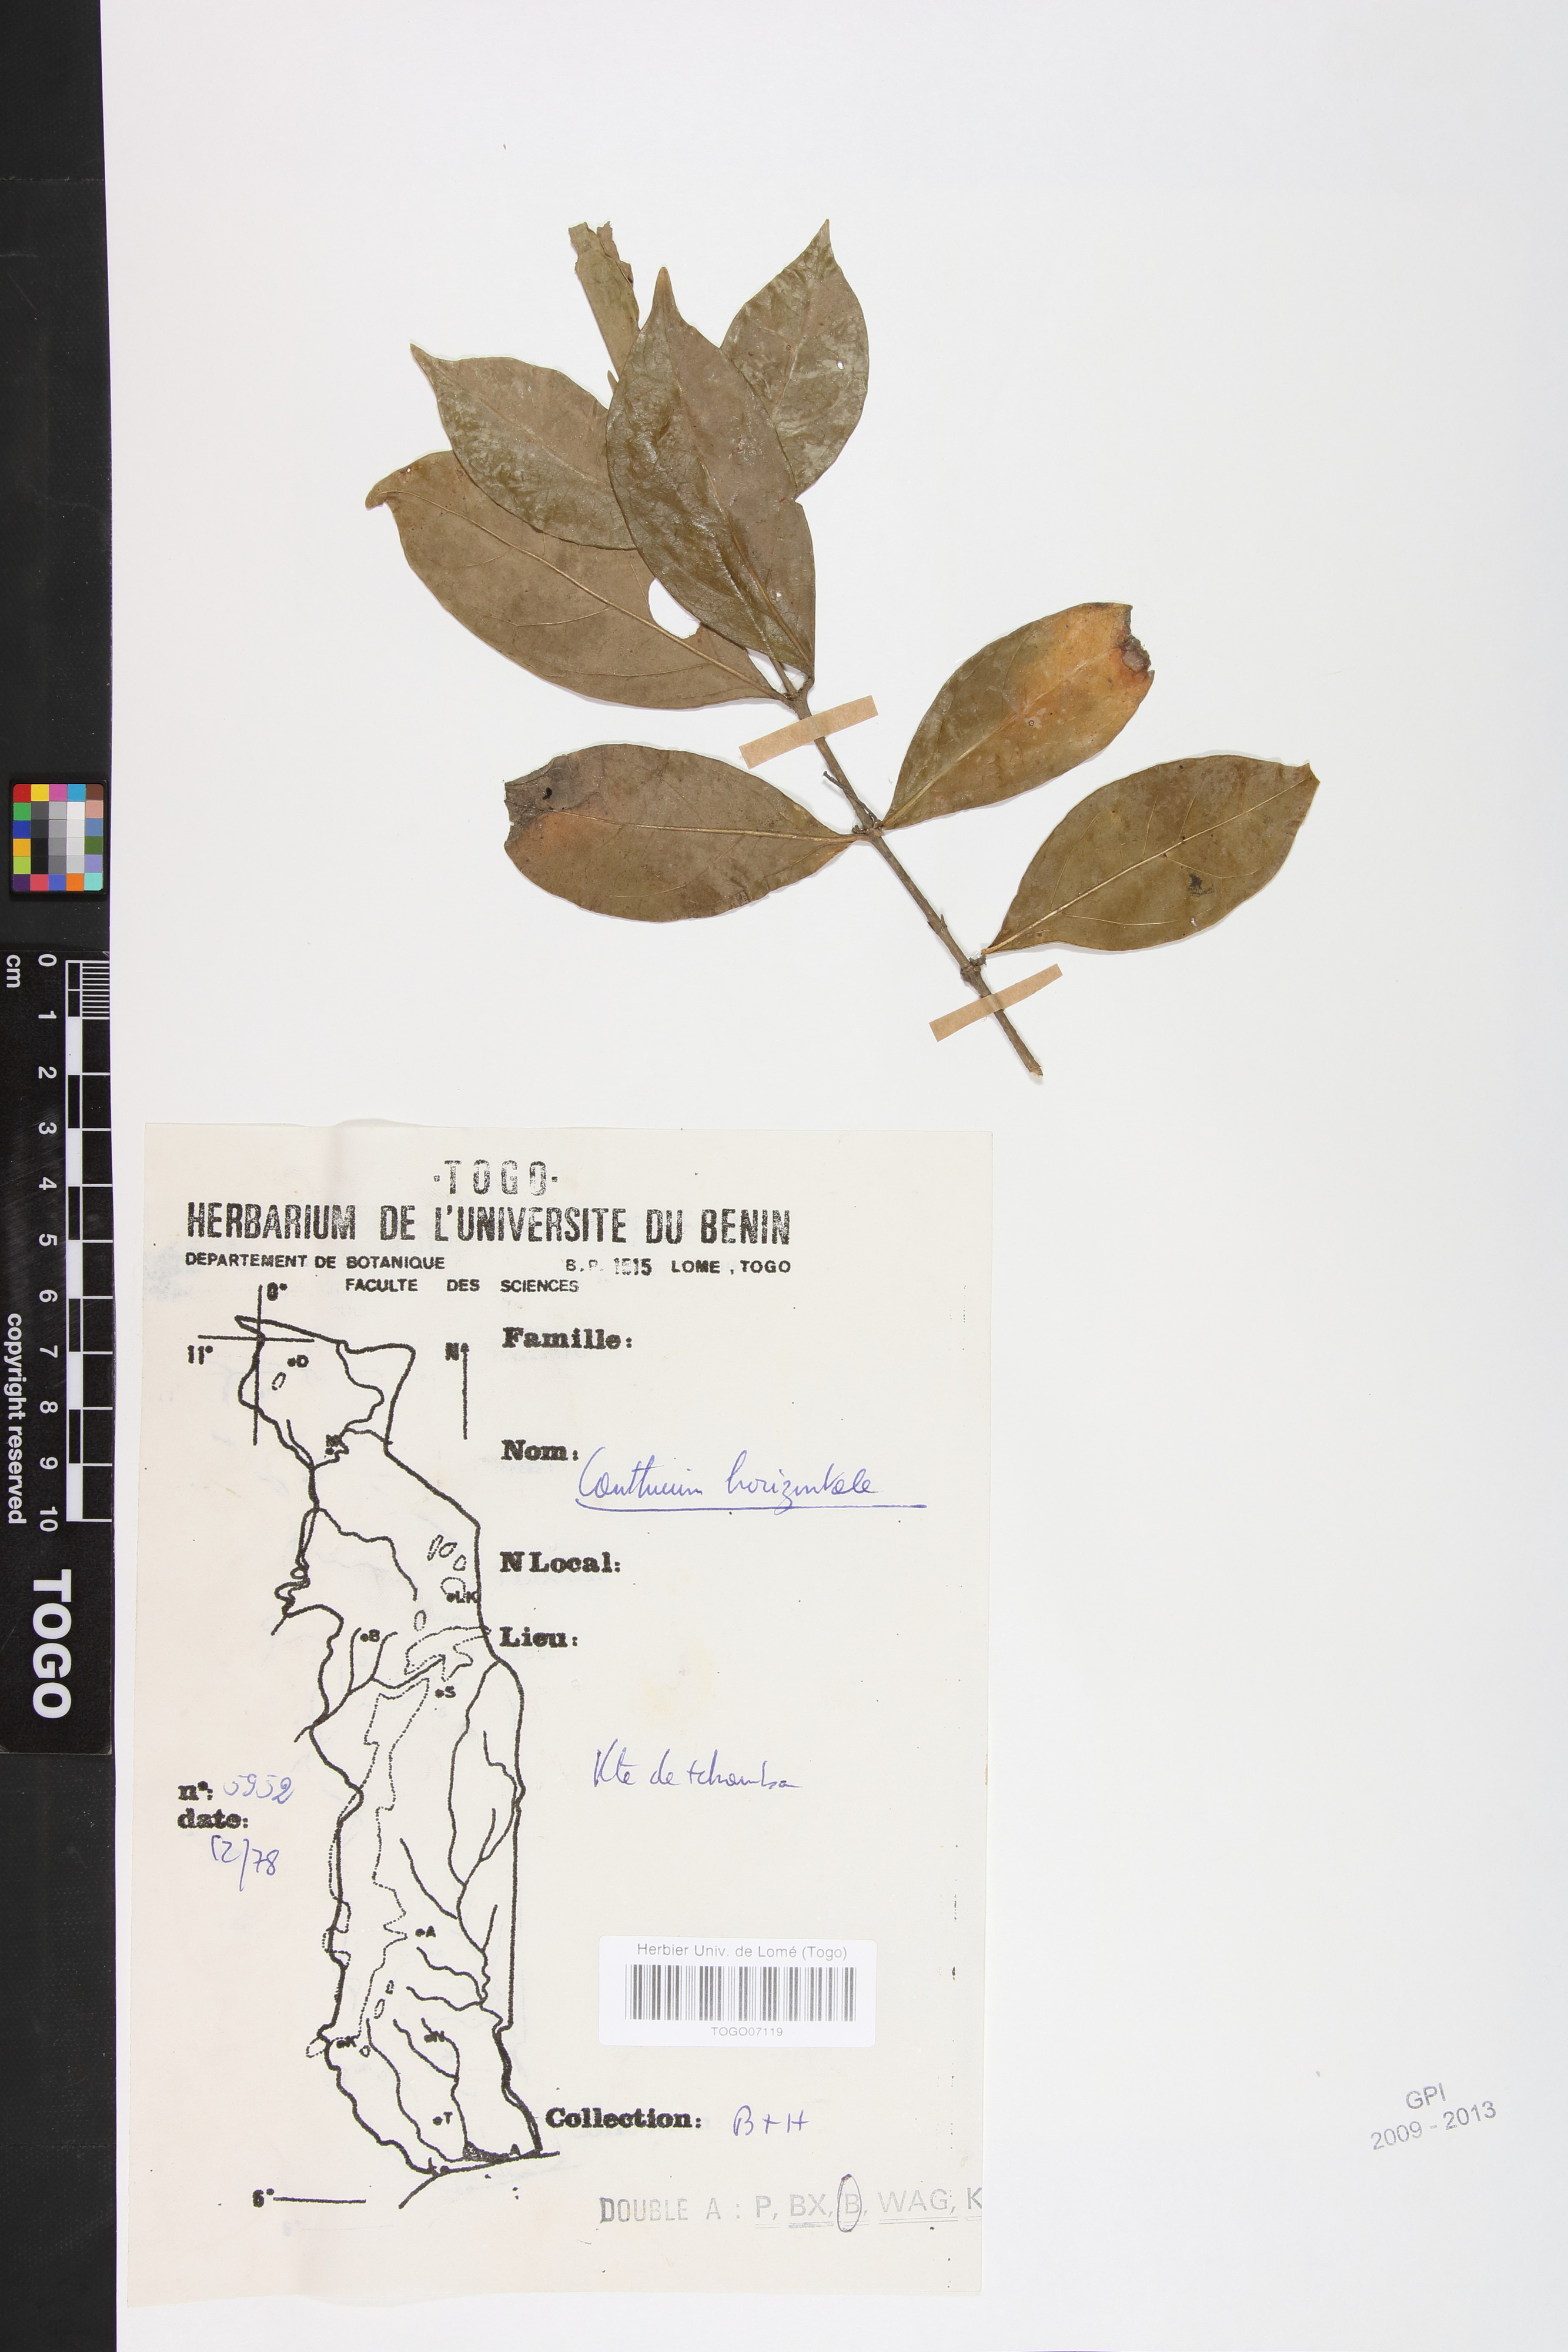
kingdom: Plantae
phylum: Tracheophyta
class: Magnoliopsida
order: Gentianales
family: Rubiaceae
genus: Psydrax
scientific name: Psydrax horizontalis
